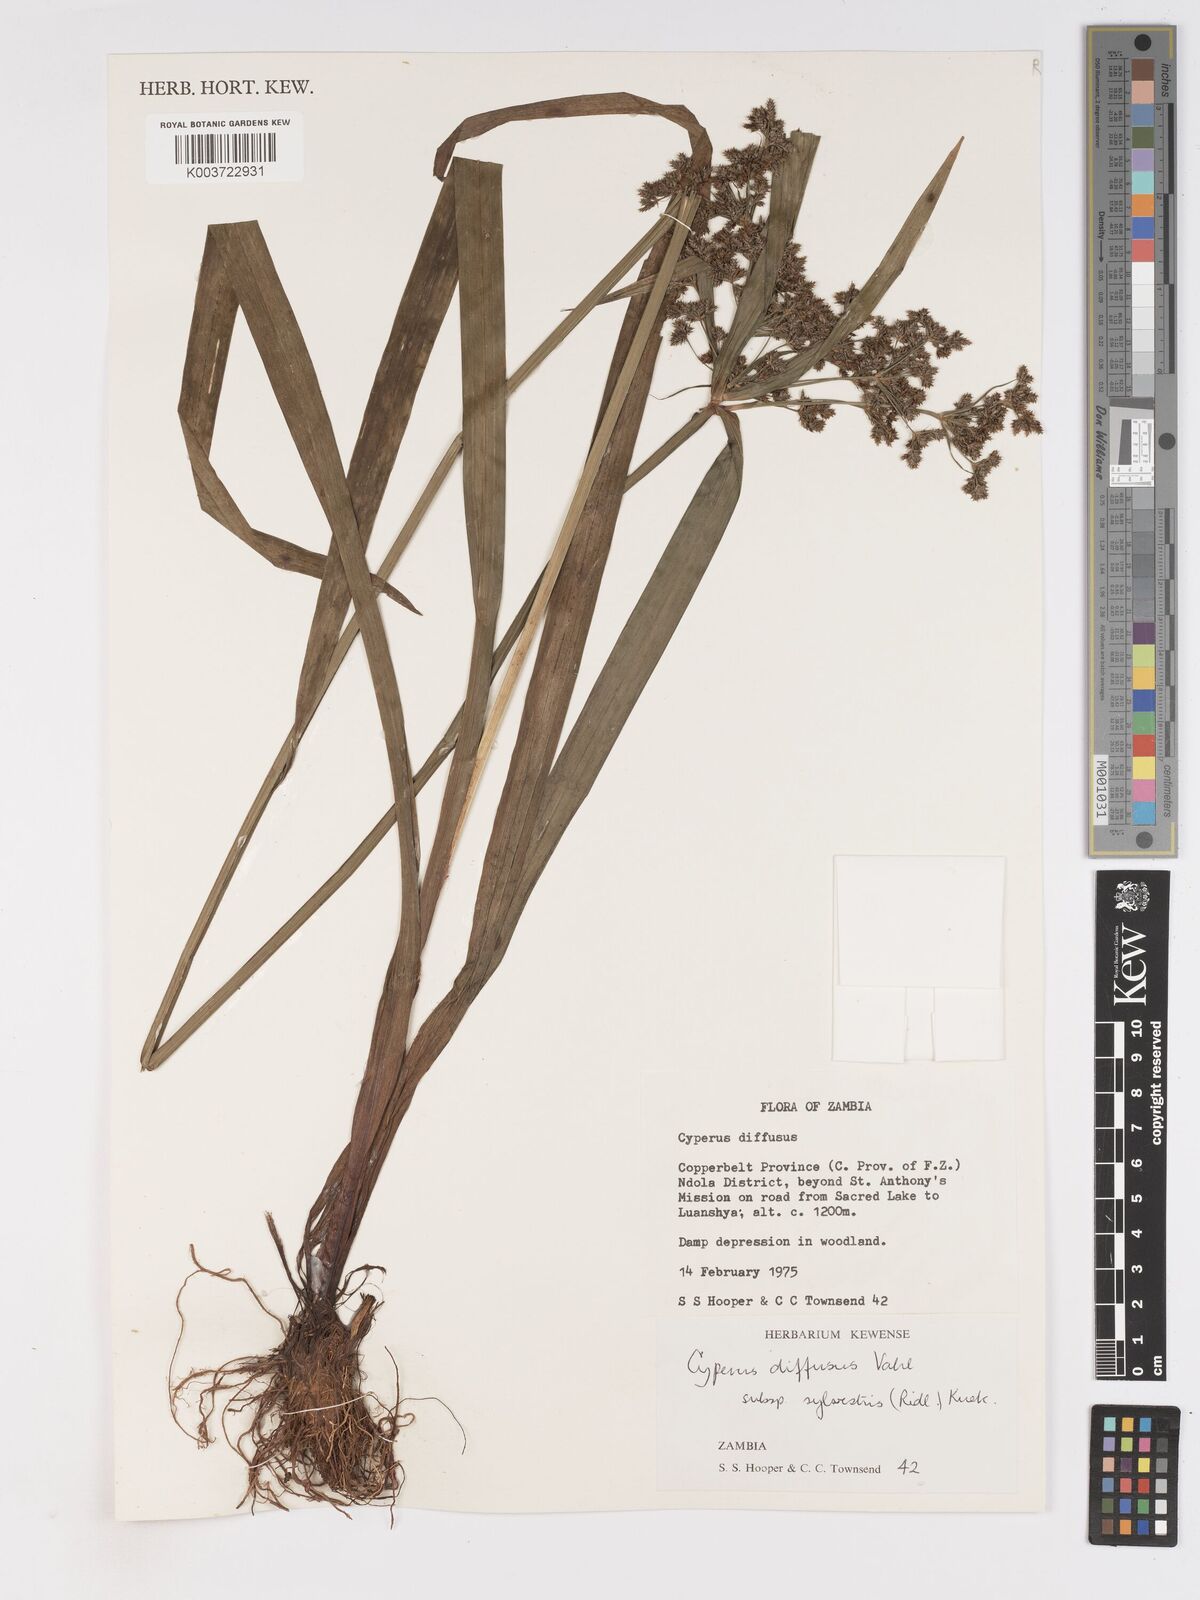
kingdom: Plantae
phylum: Tracheophyta
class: Liliopsida
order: Poales
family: Cyperaceae
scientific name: Cyperaceae
